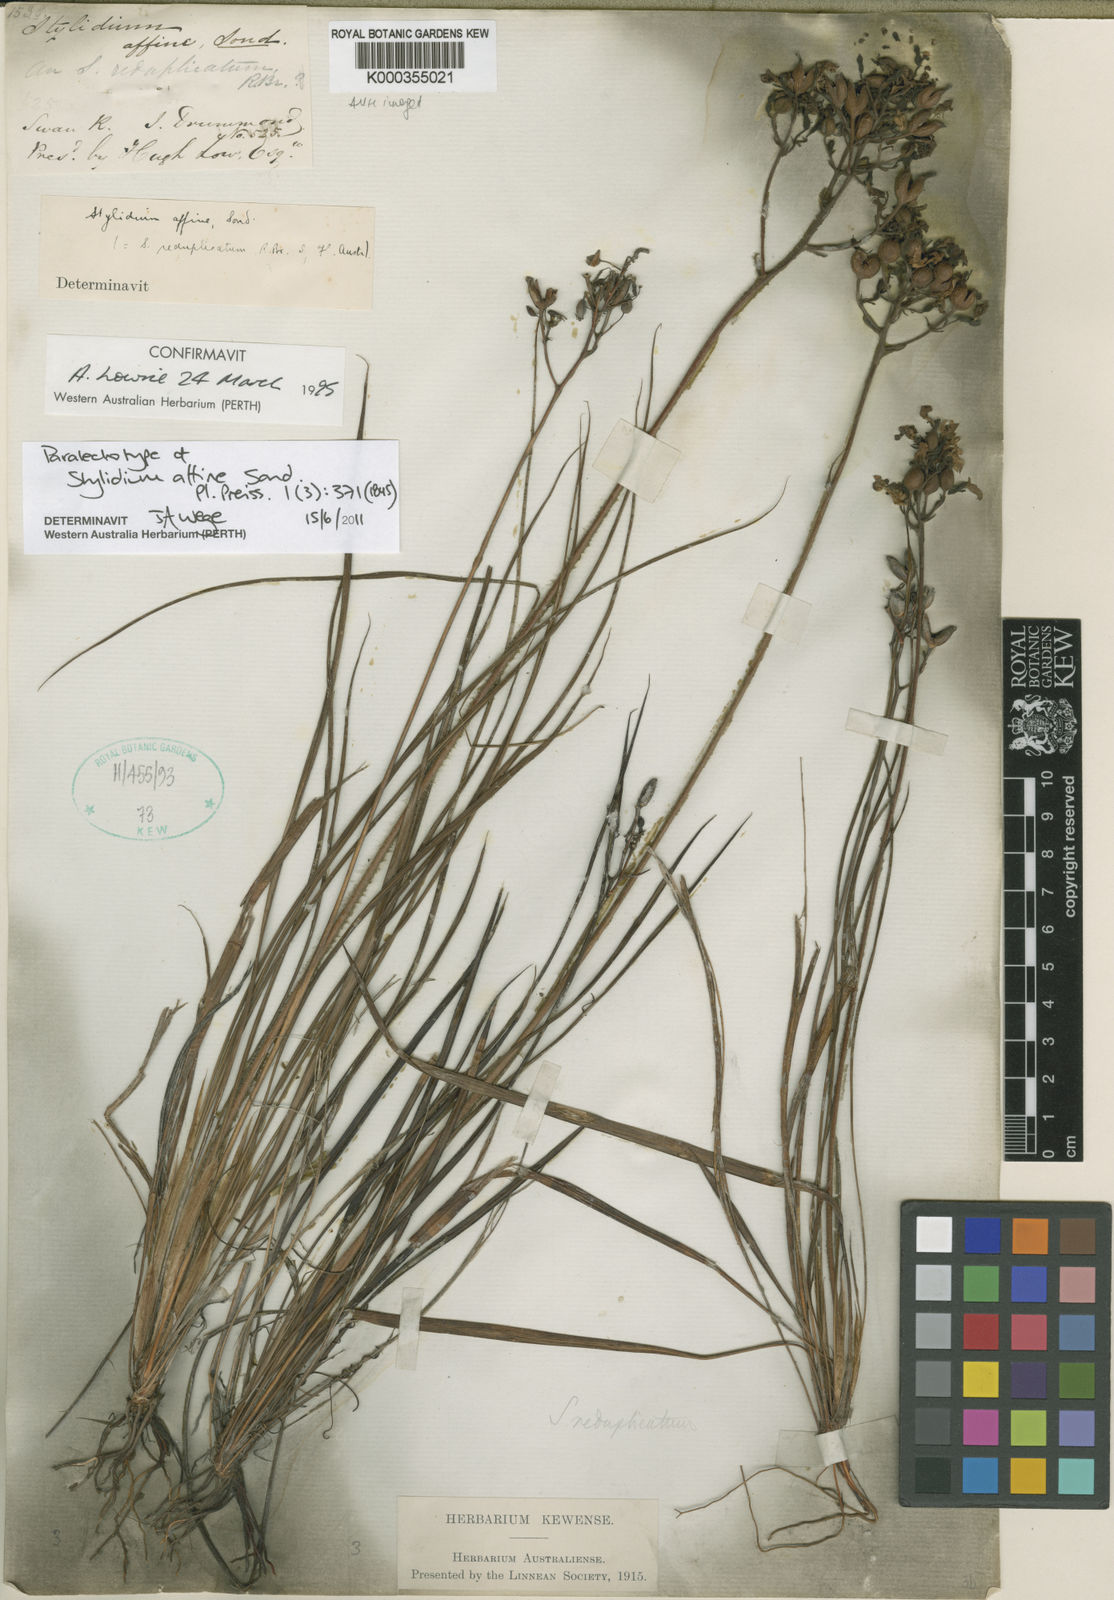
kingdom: Plantae
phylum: Tracheophyta
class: Magnoliopsida
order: Asterales
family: Stylidiaceae
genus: Stylidium
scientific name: Stylidium affine
